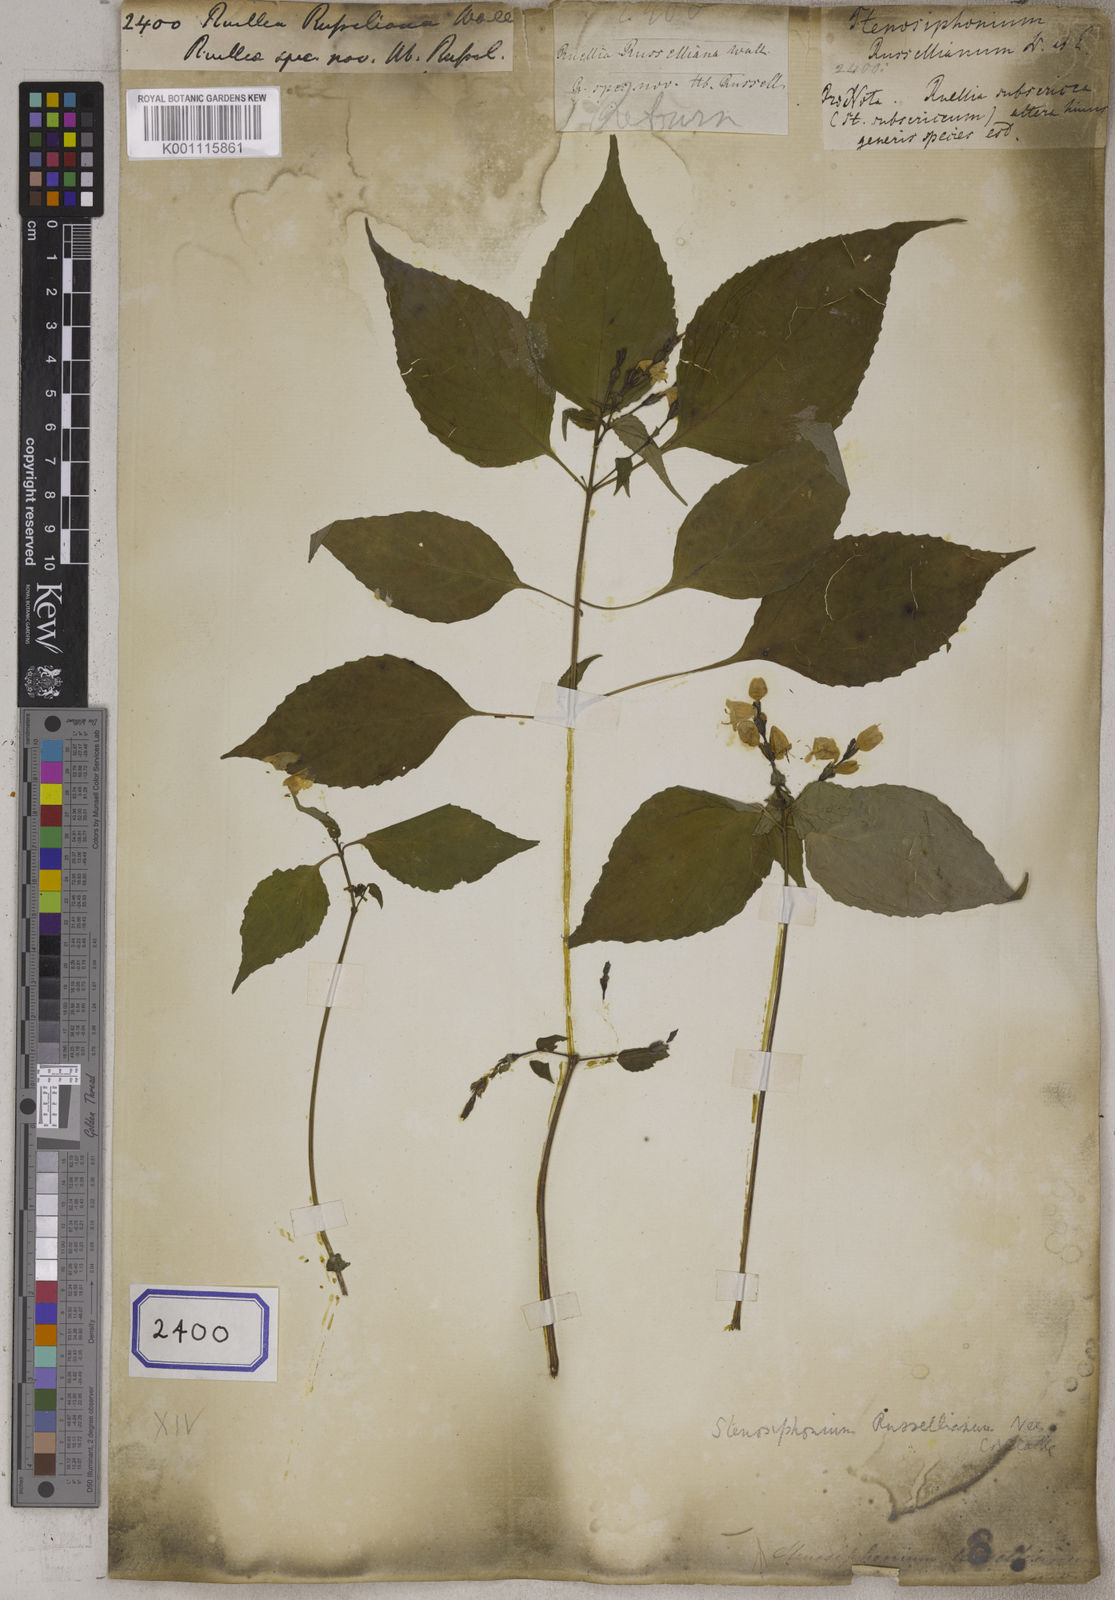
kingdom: Plantae
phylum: Tracheophyta
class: Magnoliopsida
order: Lamiales
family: Acanthaceae
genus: Strobilanthes
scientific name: Strobilanthes cordifolia
